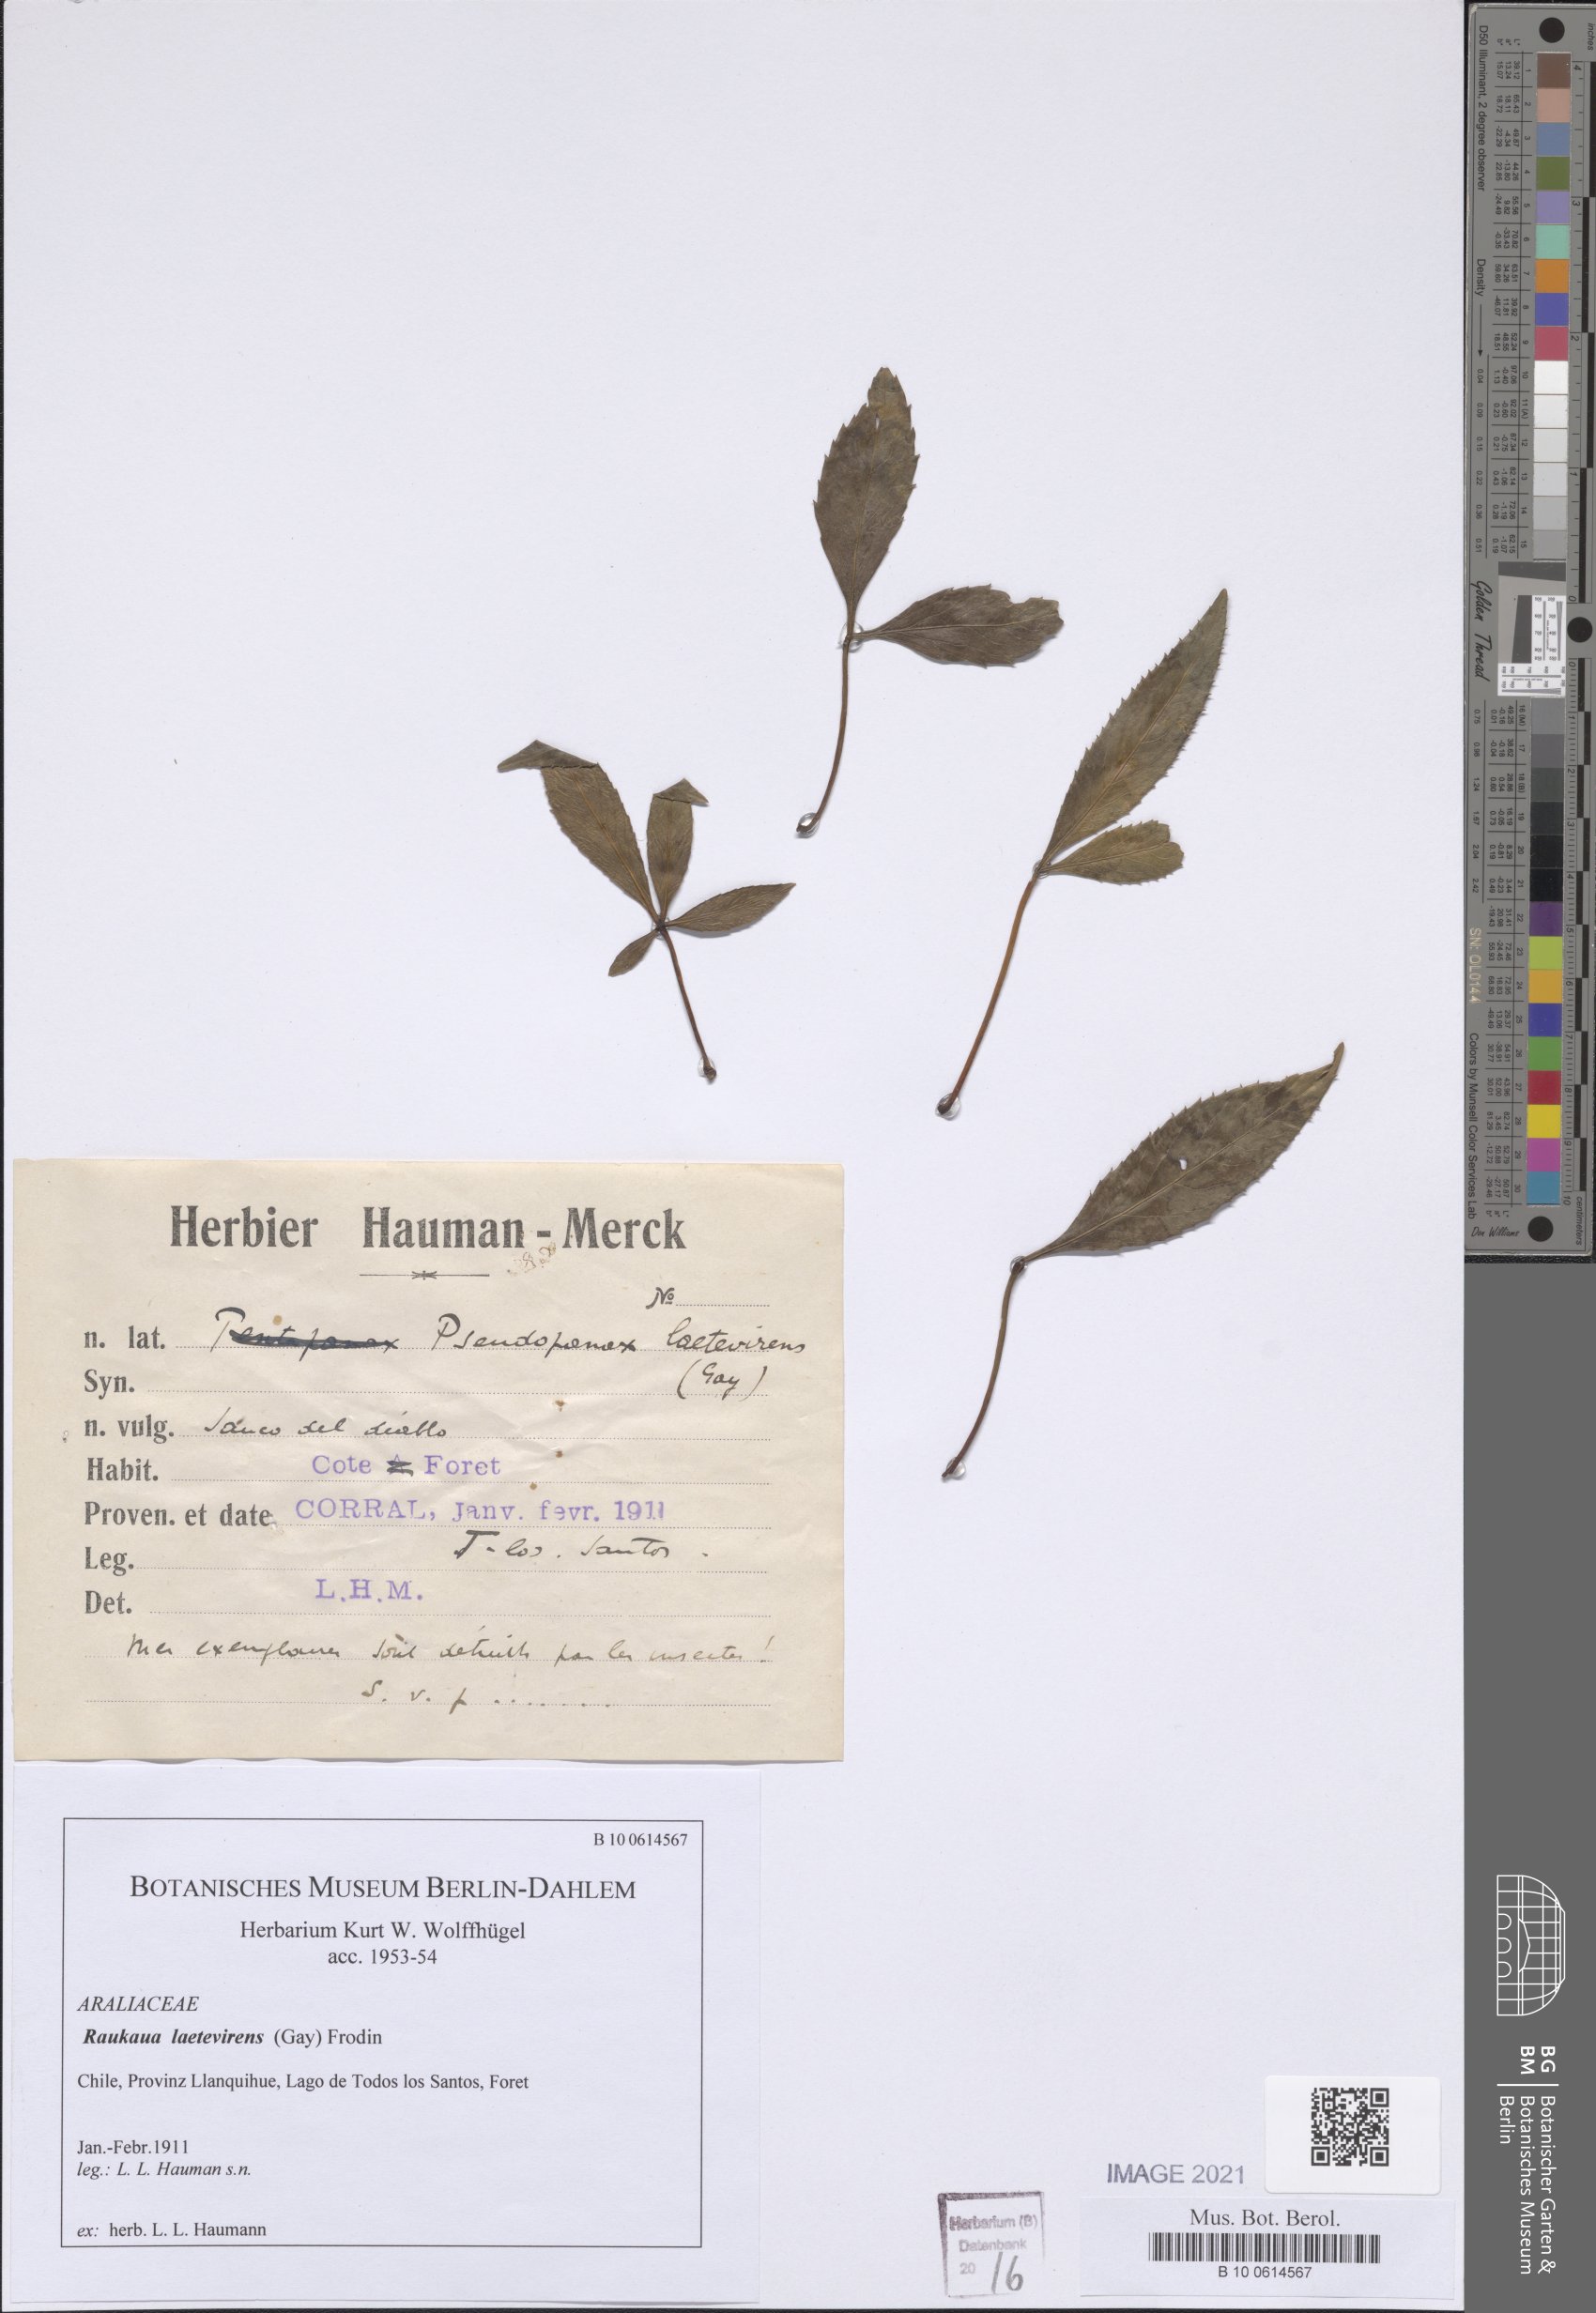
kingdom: Plantae
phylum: Tracheophyta
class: Magnoliopsida
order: Apiales
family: Araliaceae
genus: Raukaua
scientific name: Raukaua laetevirens
